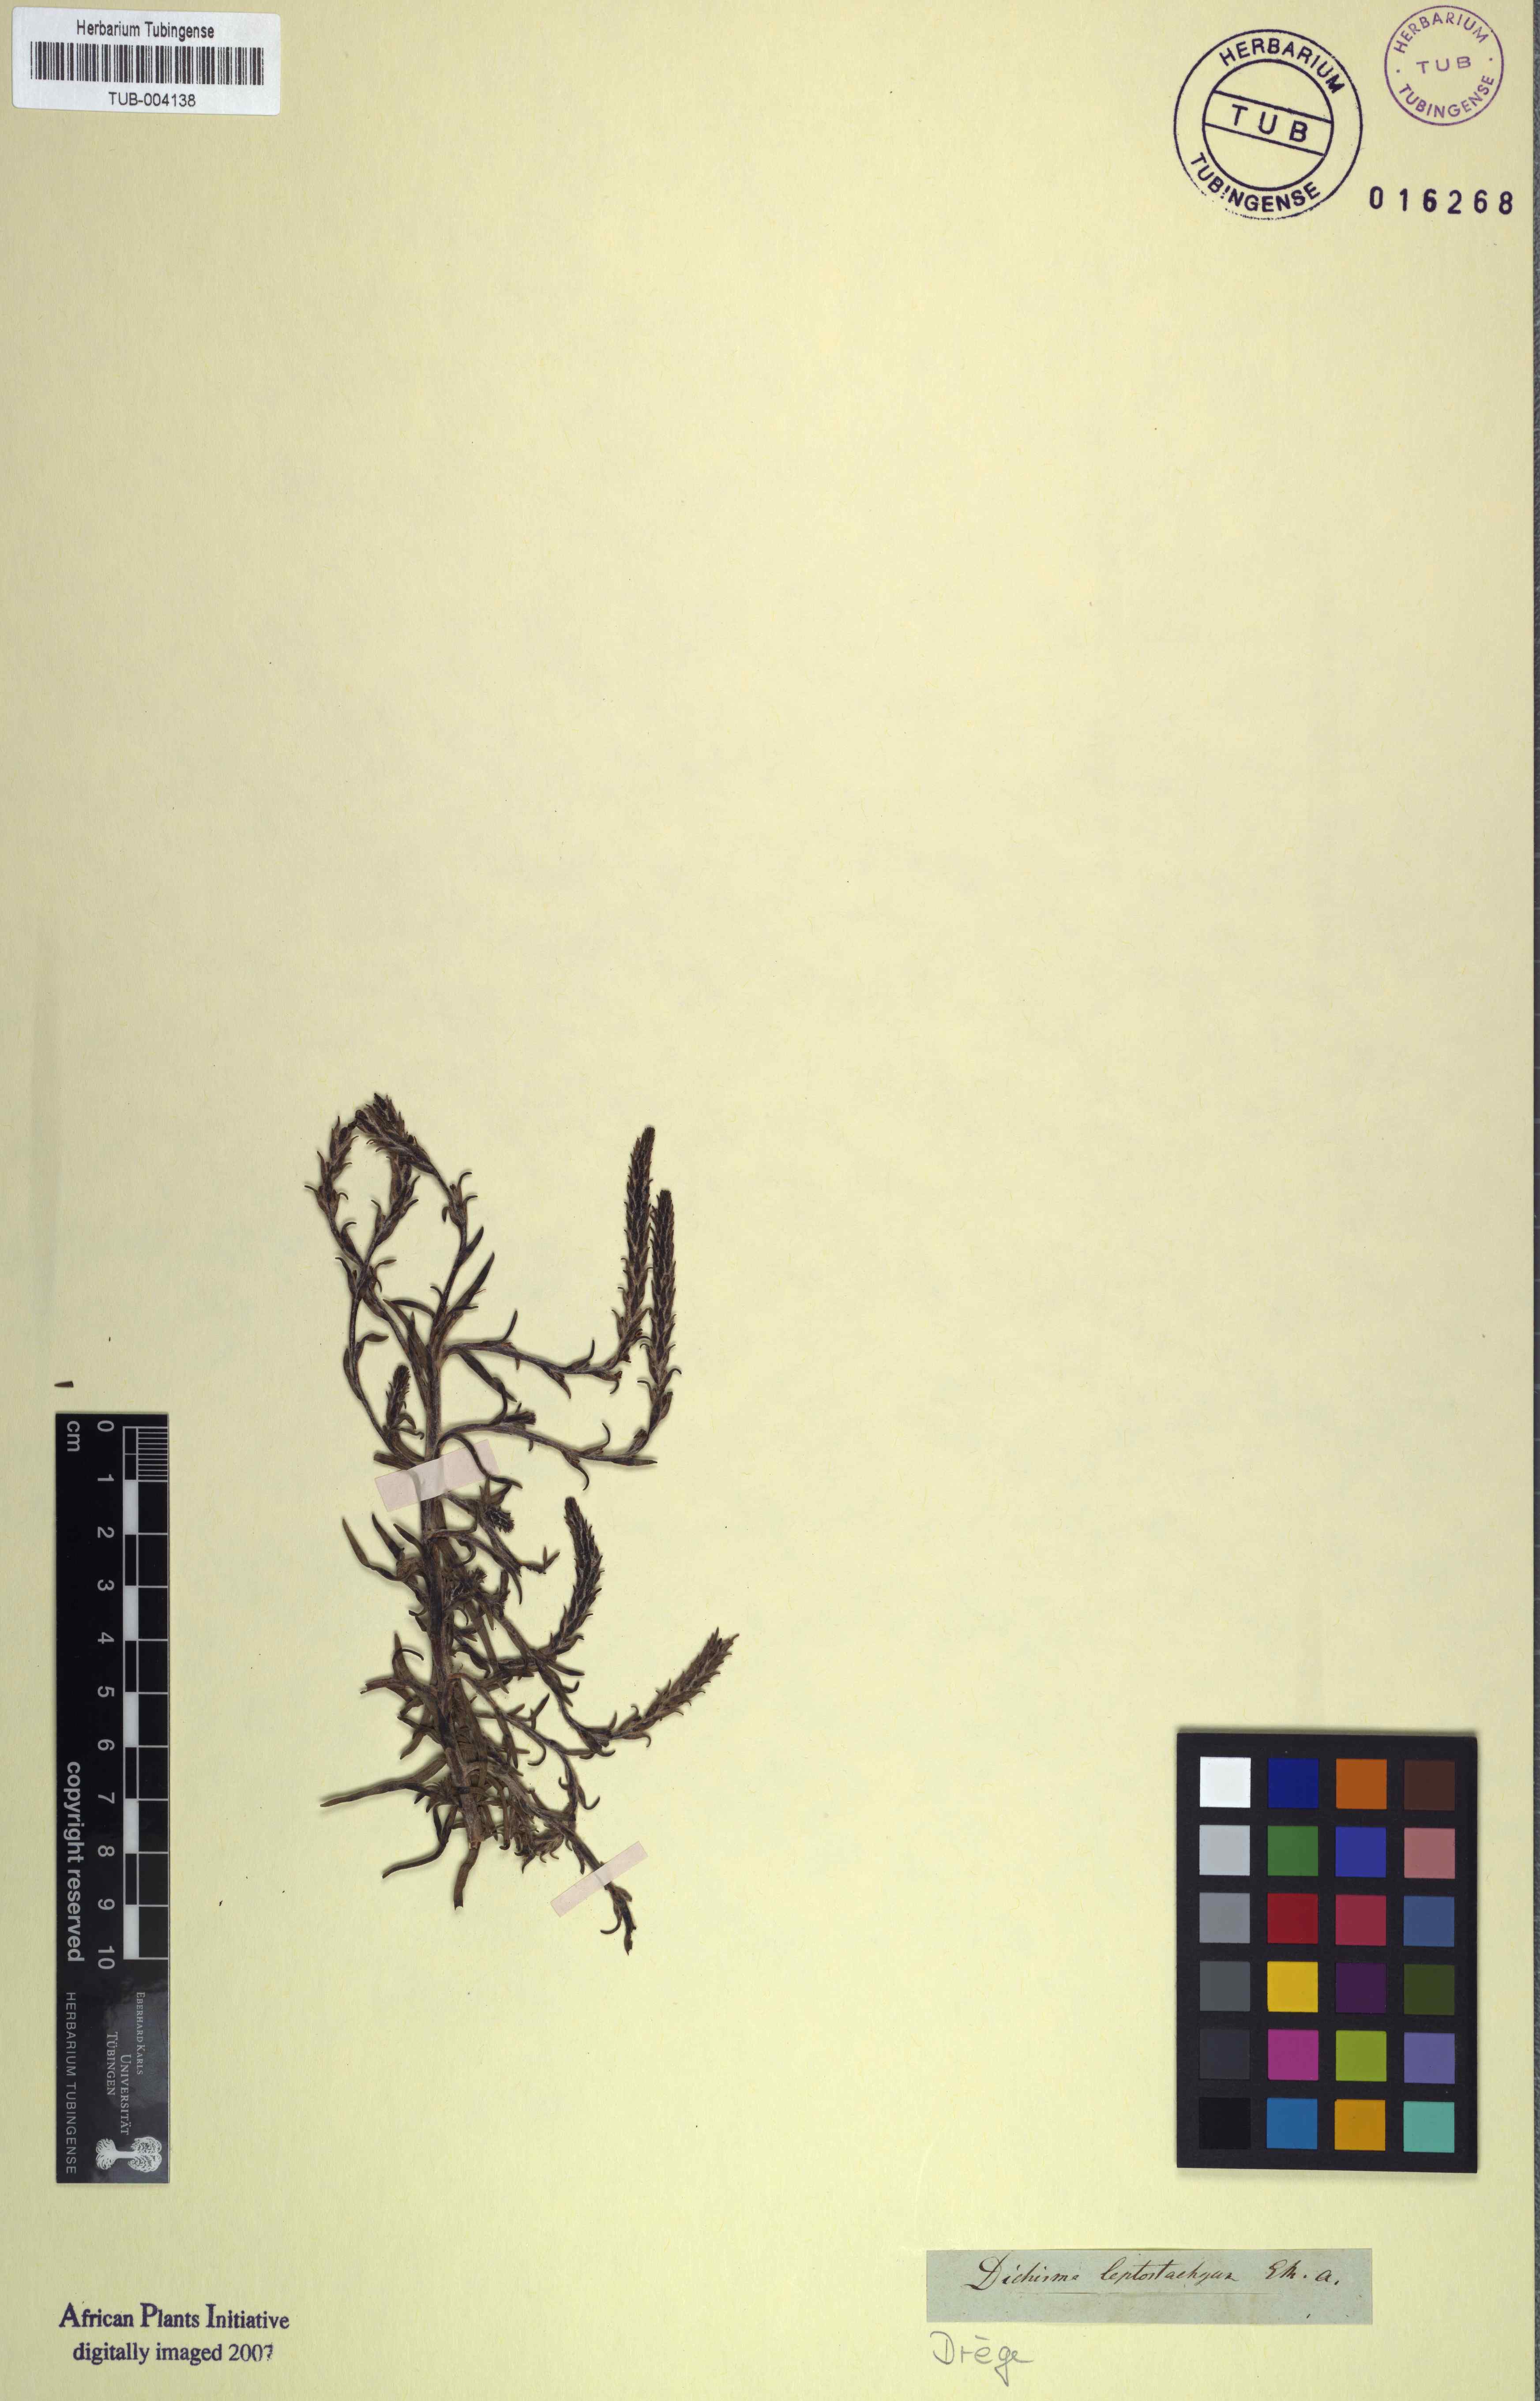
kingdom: Plantae
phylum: Tracheophyta
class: Magnoliopsida
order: Asterales
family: Asteraceae
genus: Helichrysum
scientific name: Helichrysum appendiculatum
